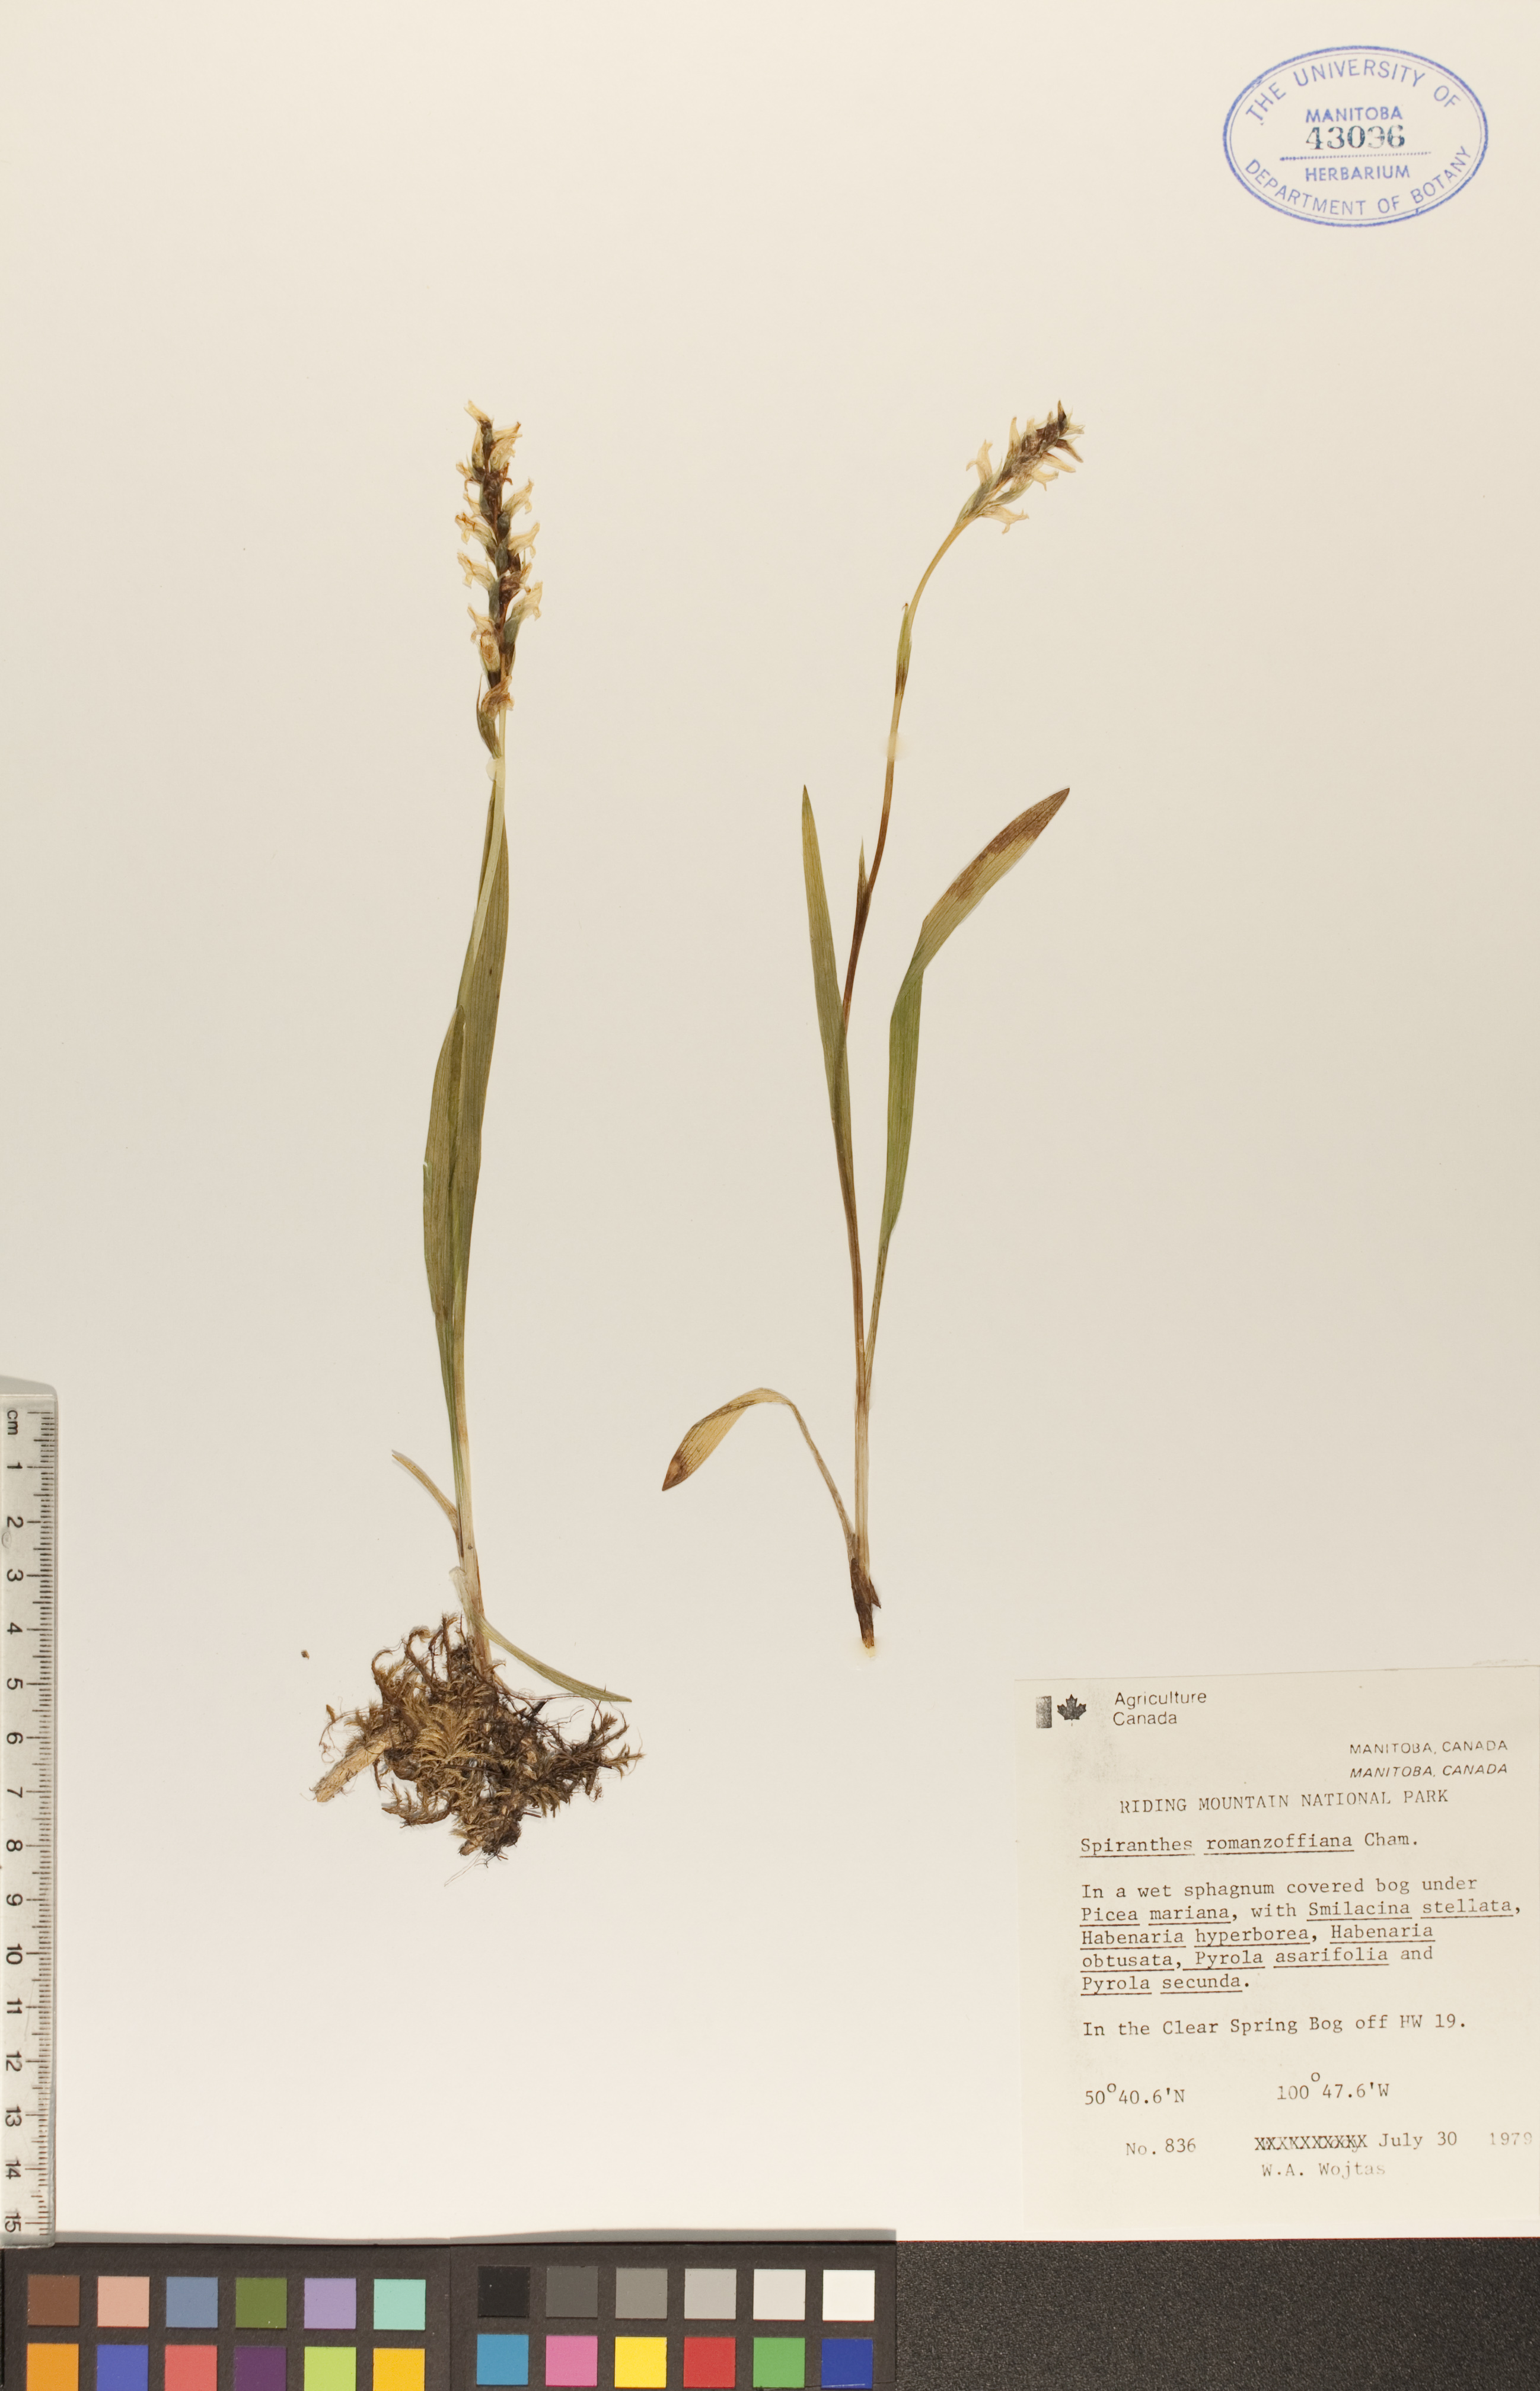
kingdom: Plantae
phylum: Tracheophyta
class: Liliopsida
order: Asparagales
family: Orchidaceae
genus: Spiranthes
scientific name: Spiranthes romanzoffiana
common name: Irish lady's-tresses
